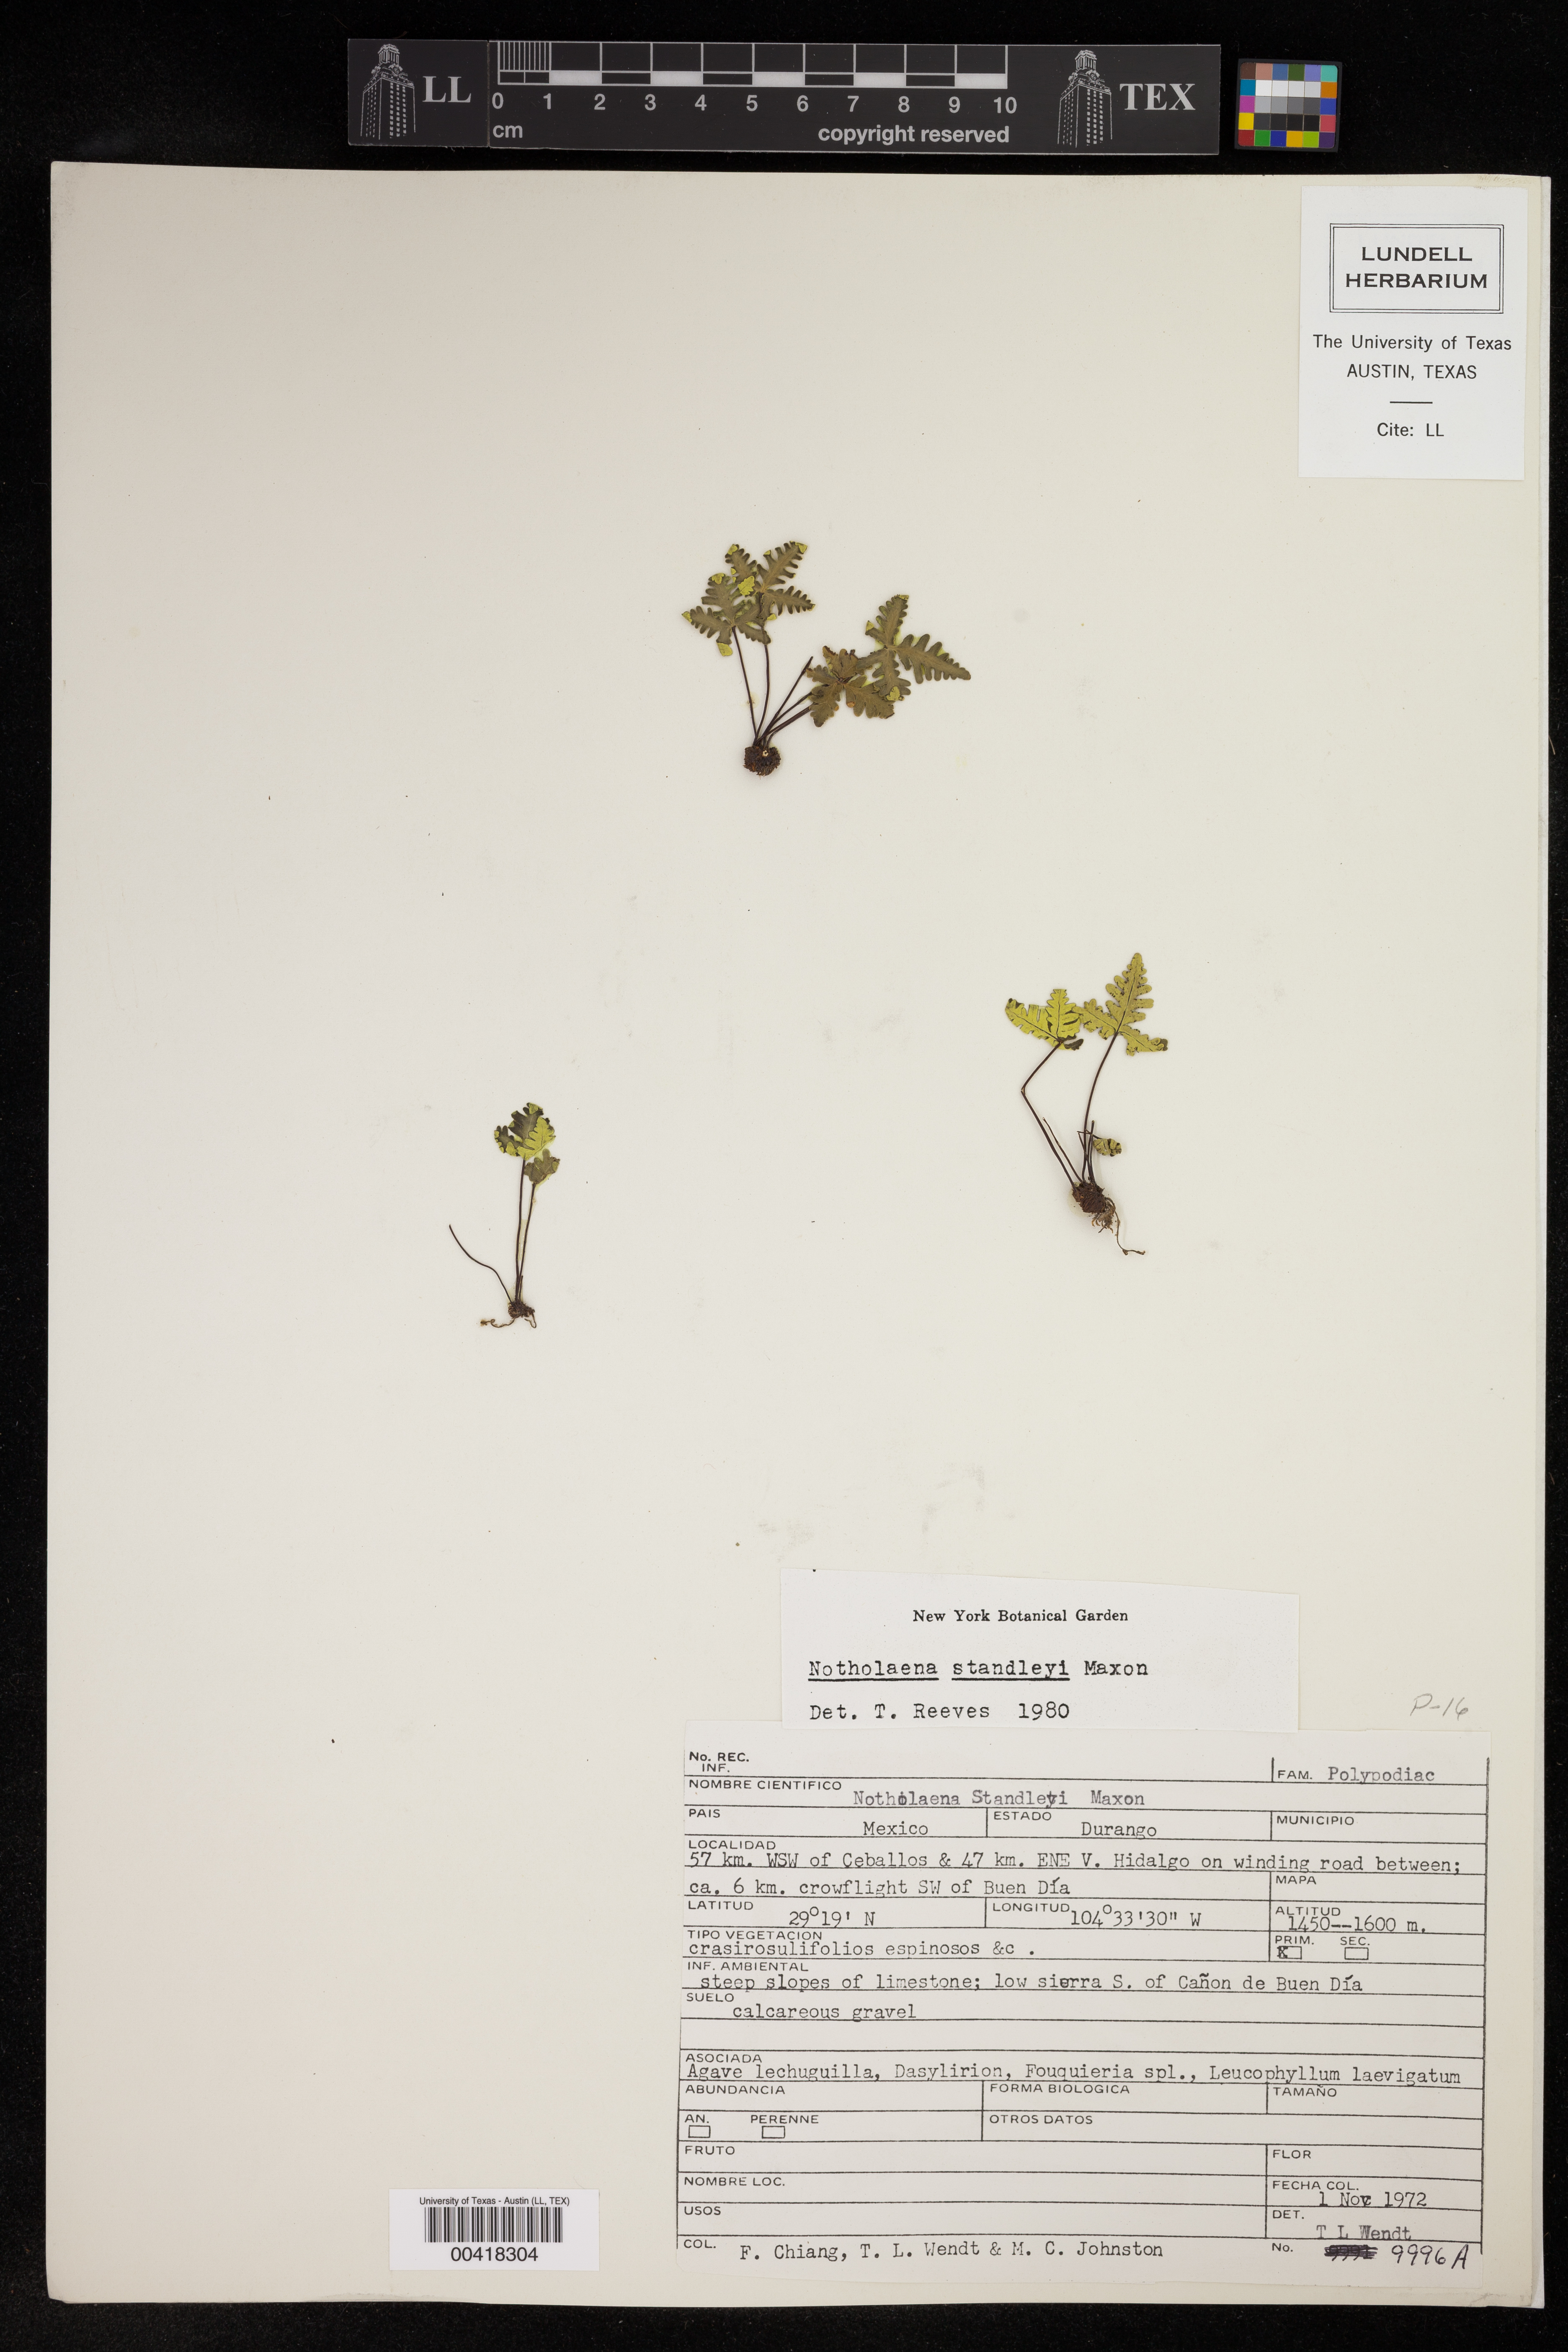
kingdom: Plantae
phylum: Tracheophyta
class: Polypodiopsida
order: Polypodiales
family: Pteridaceae
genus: Notholaena
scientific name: Notholaena standleyi
